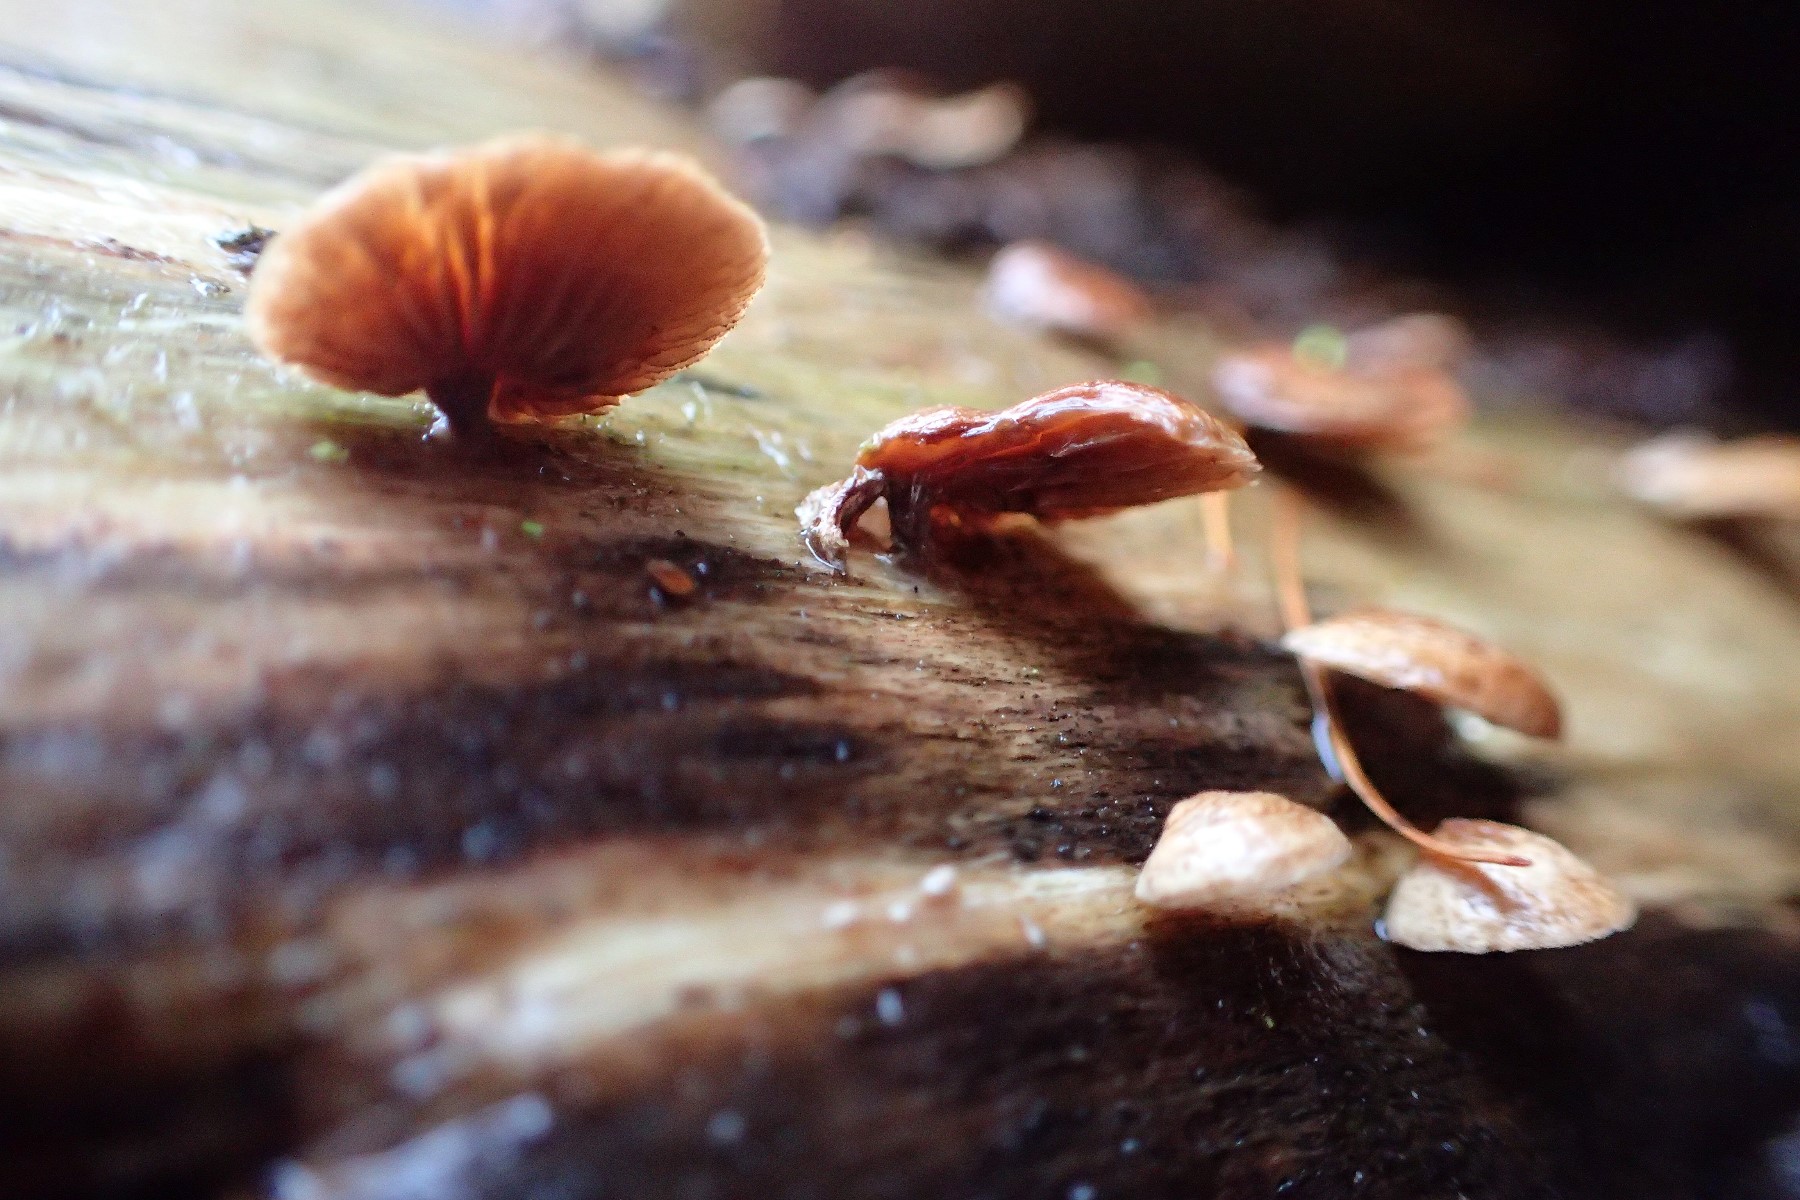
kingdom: Fungi
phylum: Basidiomycota
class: Agaricomycetes
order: Agaricales
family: Strophariaceae
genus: Deconica
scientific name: Deconica horizontalis
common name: ved-stråhat
